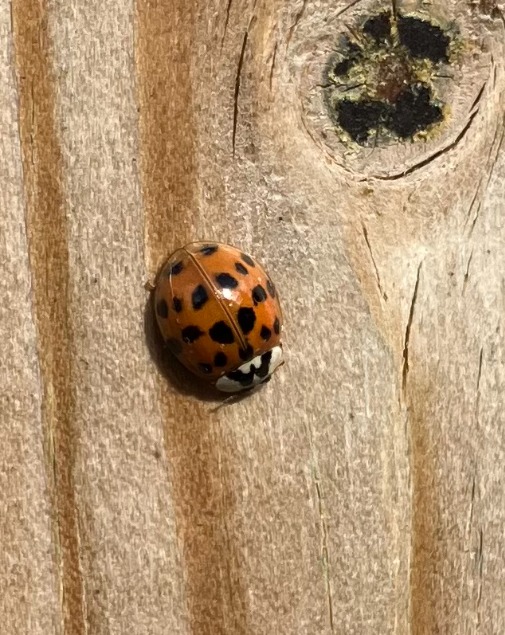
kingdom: Animalia
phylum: Arthropoda
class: Insecta
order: Coleoptera
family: Coccinellidae
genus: Harmonia
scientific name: Harmonia axyridis
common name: Harlekinmariehøne
